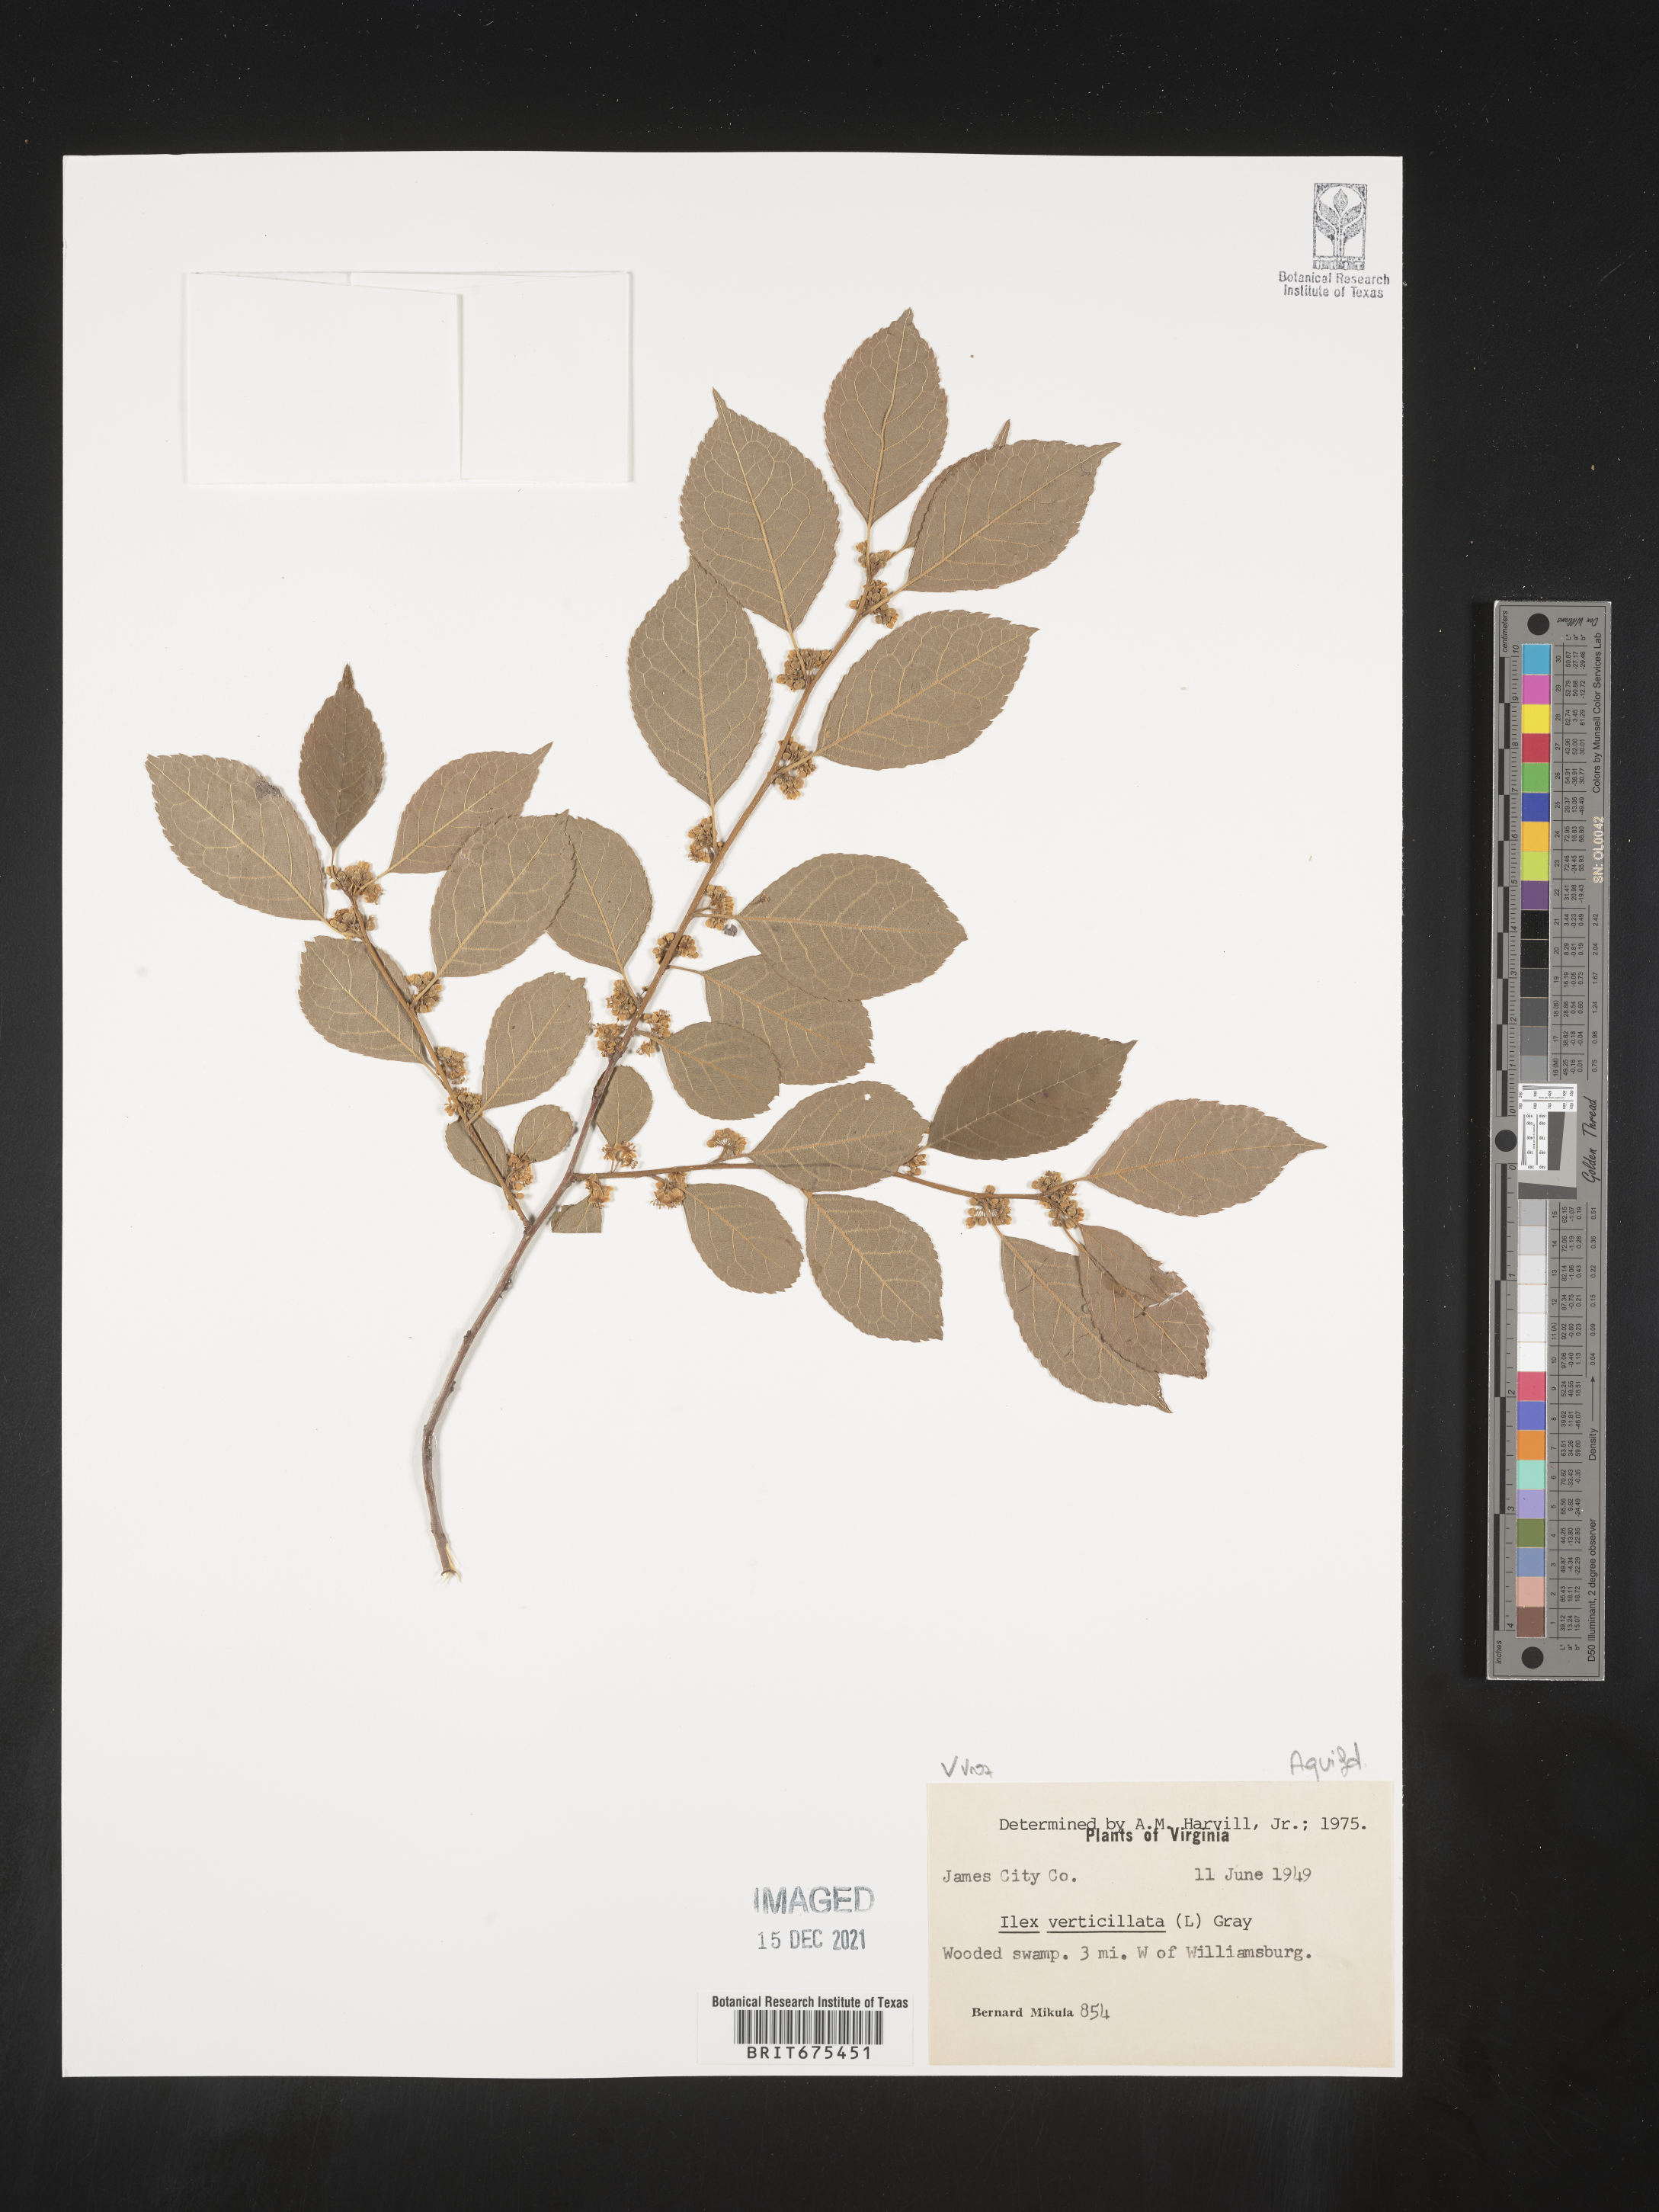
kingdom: Plantae
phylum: Tracheophyta
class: Magnoliopsida
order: Aquifoliales
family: Aquifoliaceae
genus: Ilex
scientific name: Ilex verticillata
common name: Virginia winterberry
